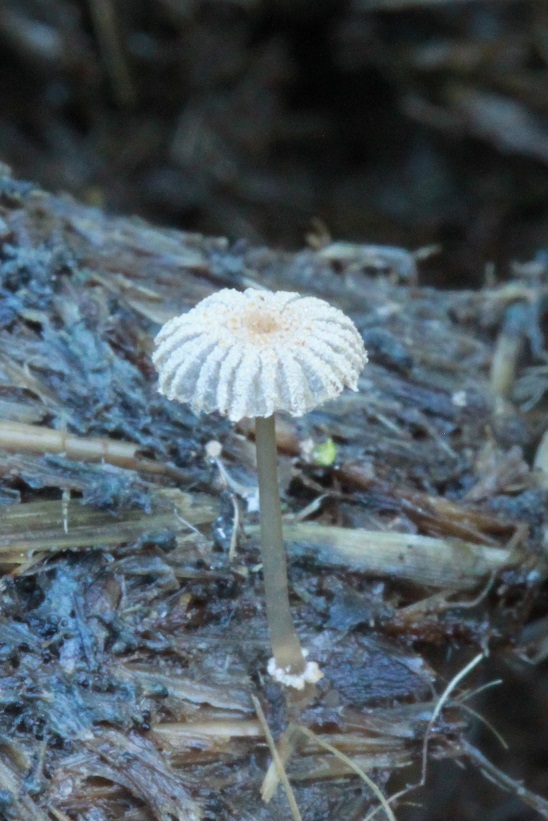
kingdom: Fungi
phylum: Basidiomycota
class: Agaricomycetes
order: Agaricales
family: Psathyrellaceae
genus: Narcissea
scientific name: Narcissea ephemeroides
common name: ring-blækhat
